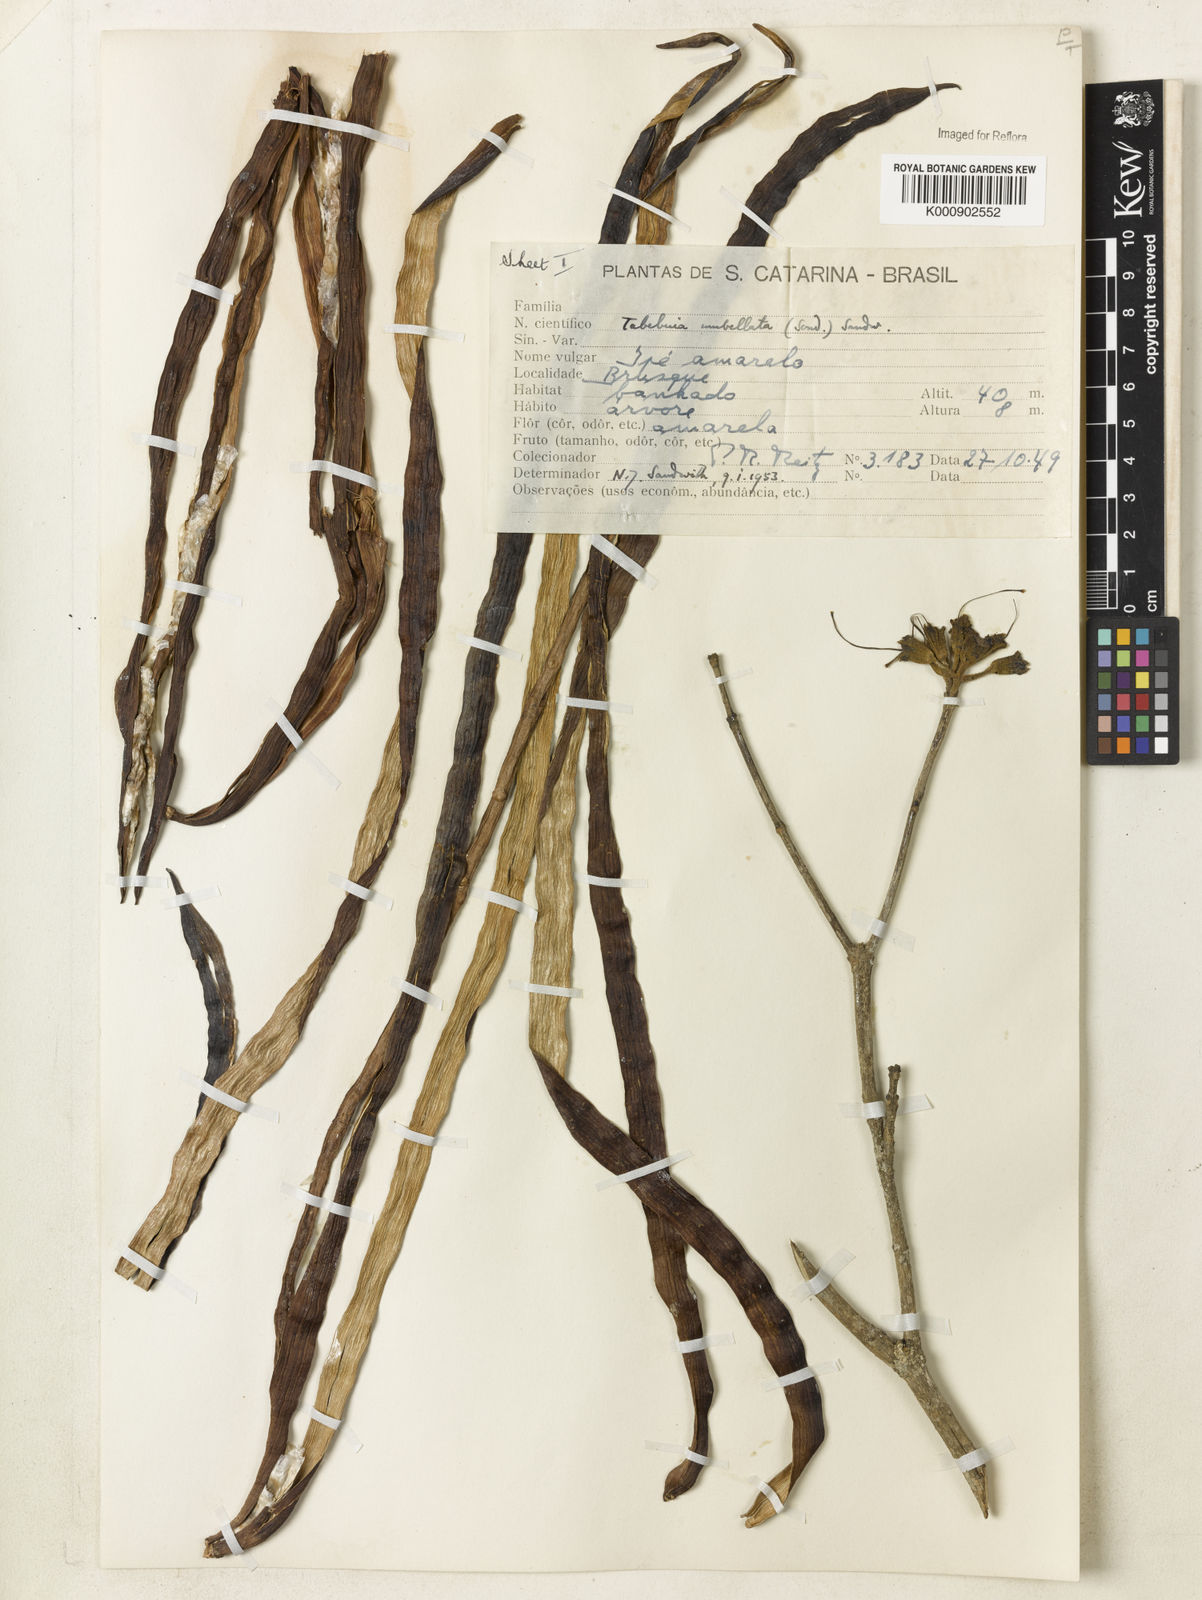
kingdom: Plantae
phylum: Tracheophyta
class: Magnoliopsida
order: Lamiales
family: Bignoniaceae
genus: Handroanthus
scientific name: Handroanthus umbellatus
